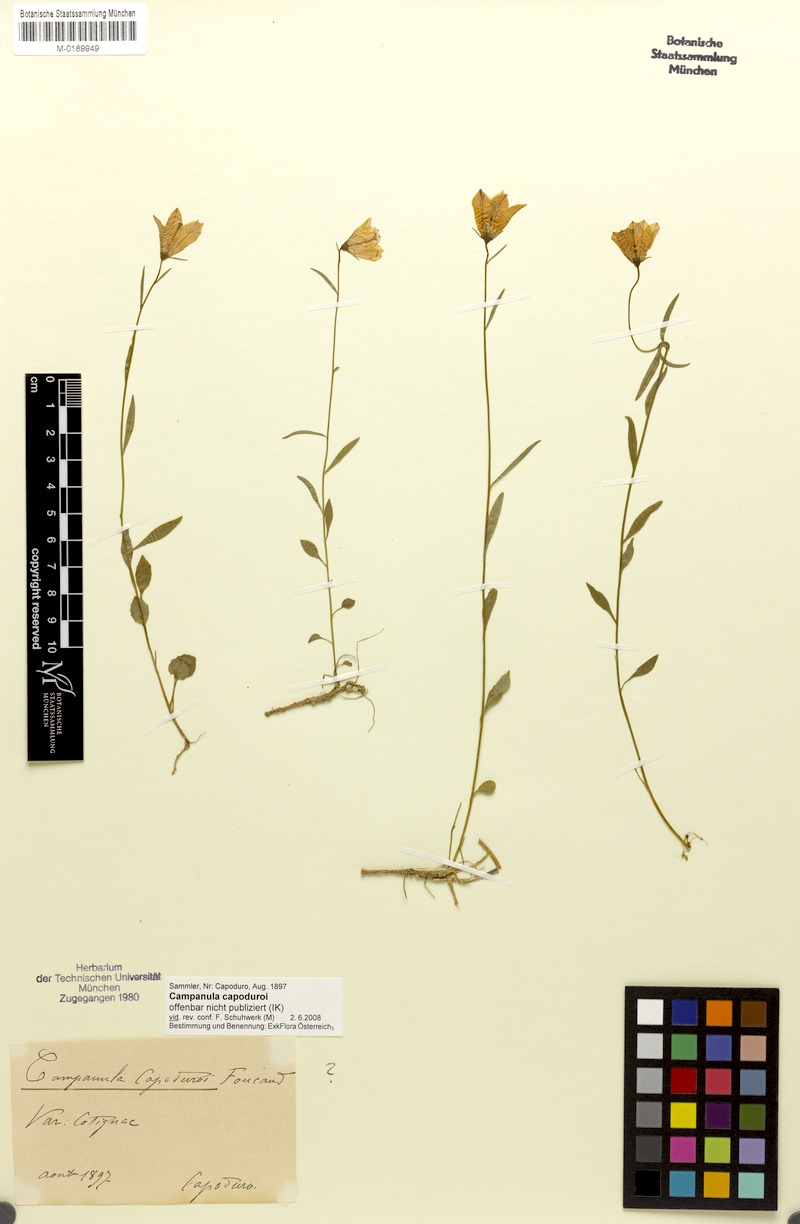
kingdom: Plantae
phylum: Tracheophyta
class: Magnoliopsida
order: Asterales
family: Campanulaceae
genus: Campanula
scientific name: Campanula rotundifolia
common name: Harebell
